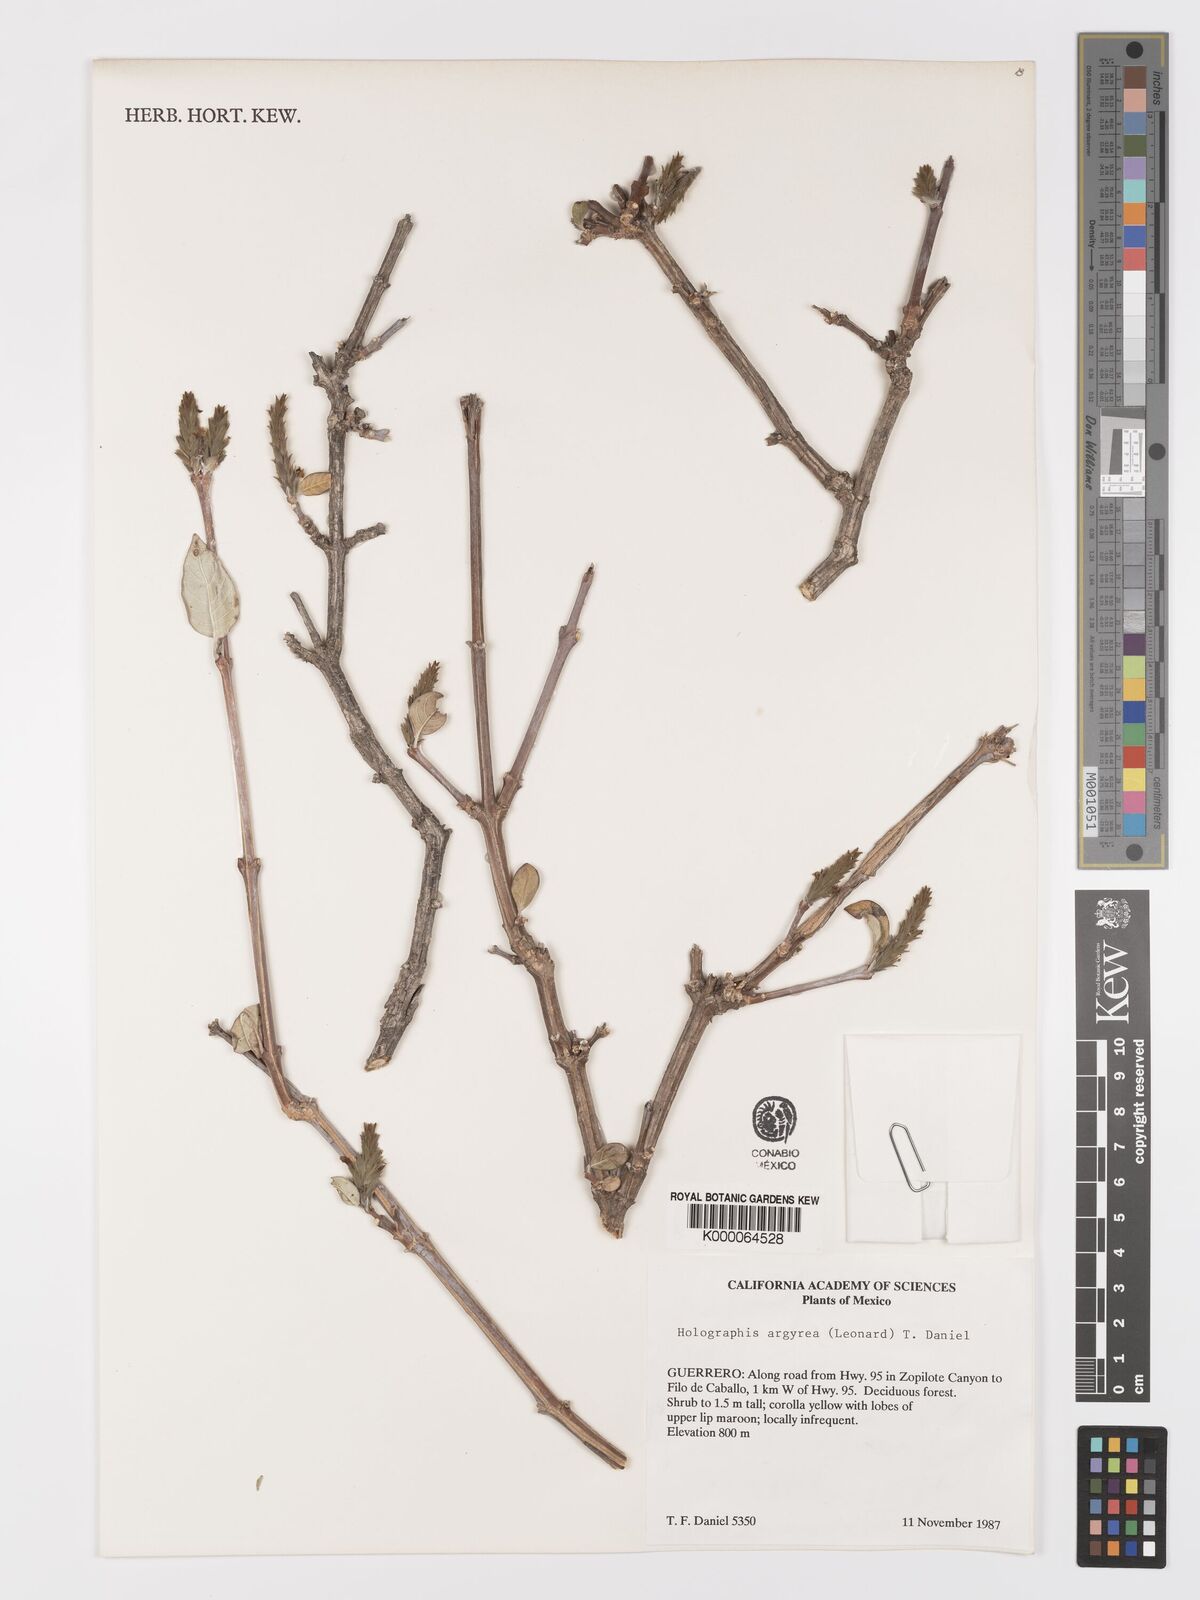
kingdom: Plantae
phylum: Tracheophyta
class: Magnoliopsida
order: Lamiales
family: Acanthaceae
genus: Holographis
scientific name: Holographis argyrea
